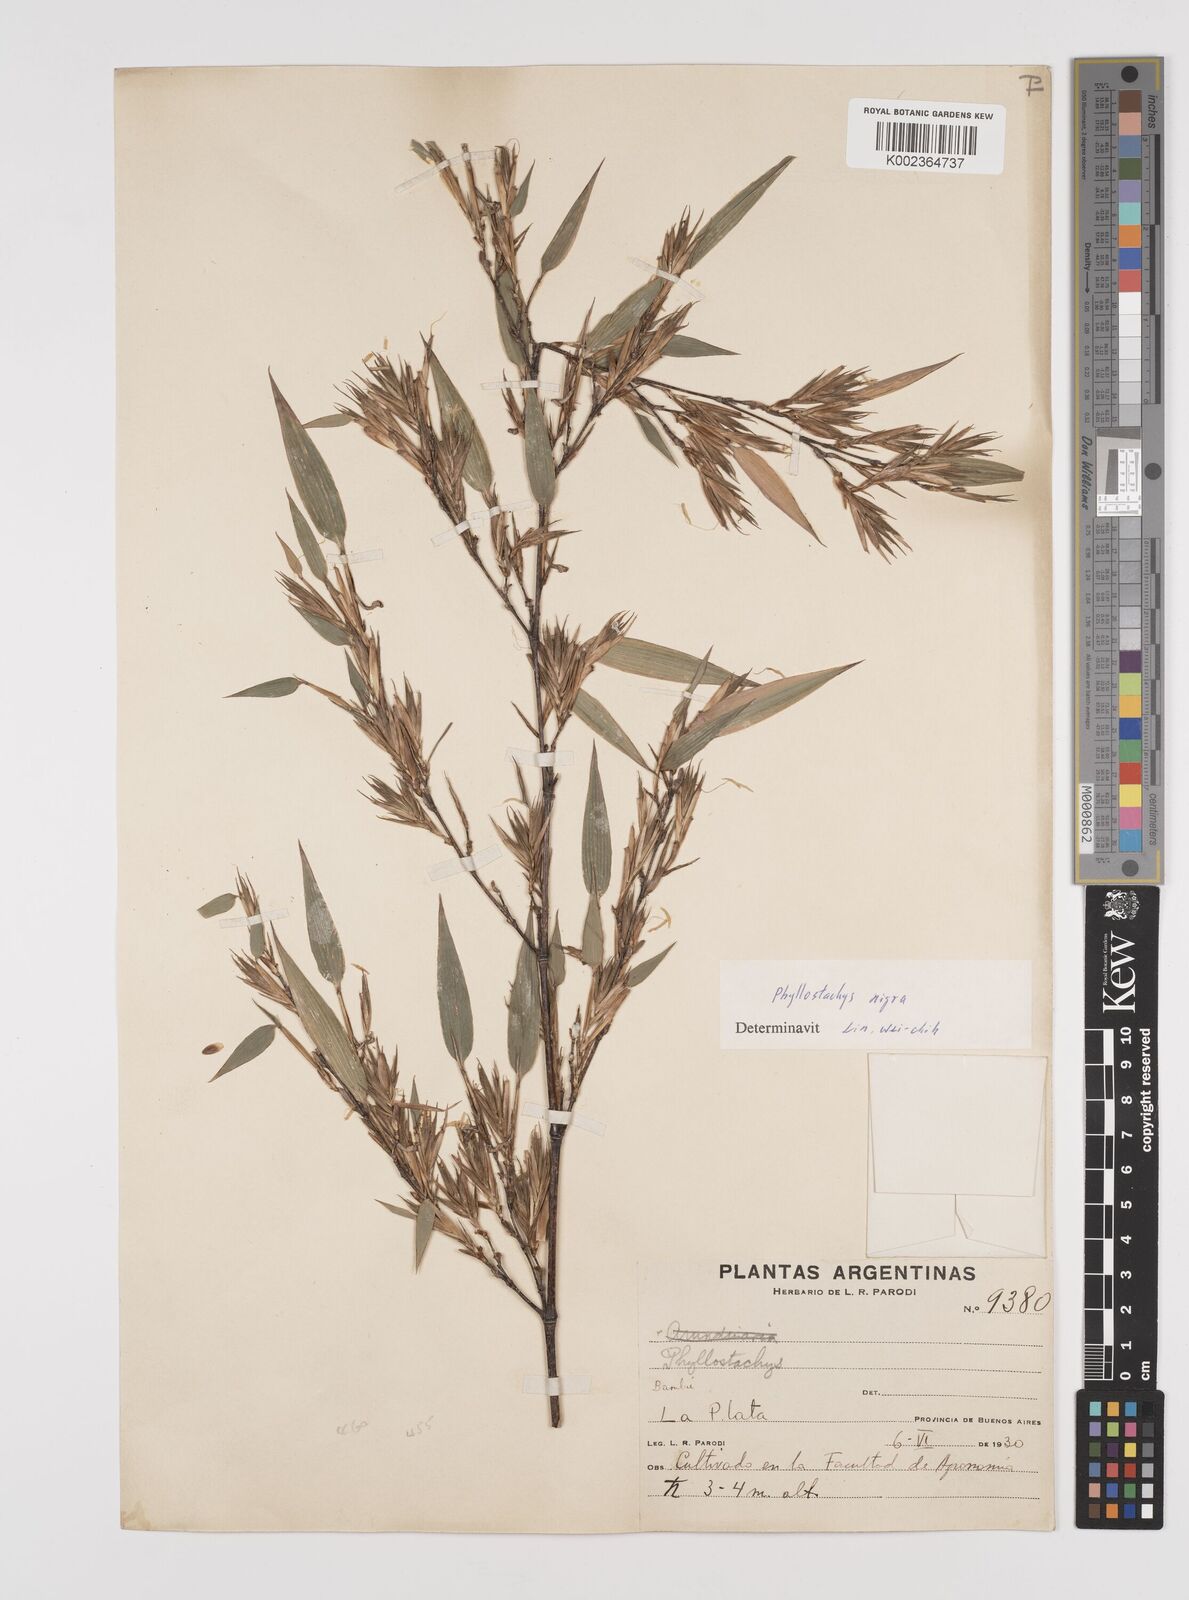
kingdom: Plantae
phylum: Tracheophyta
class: Liliopsida
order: Poales
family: Poaceae
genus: Phyllostachys
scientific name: Phyllostachys nigra
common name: Black bamboo
